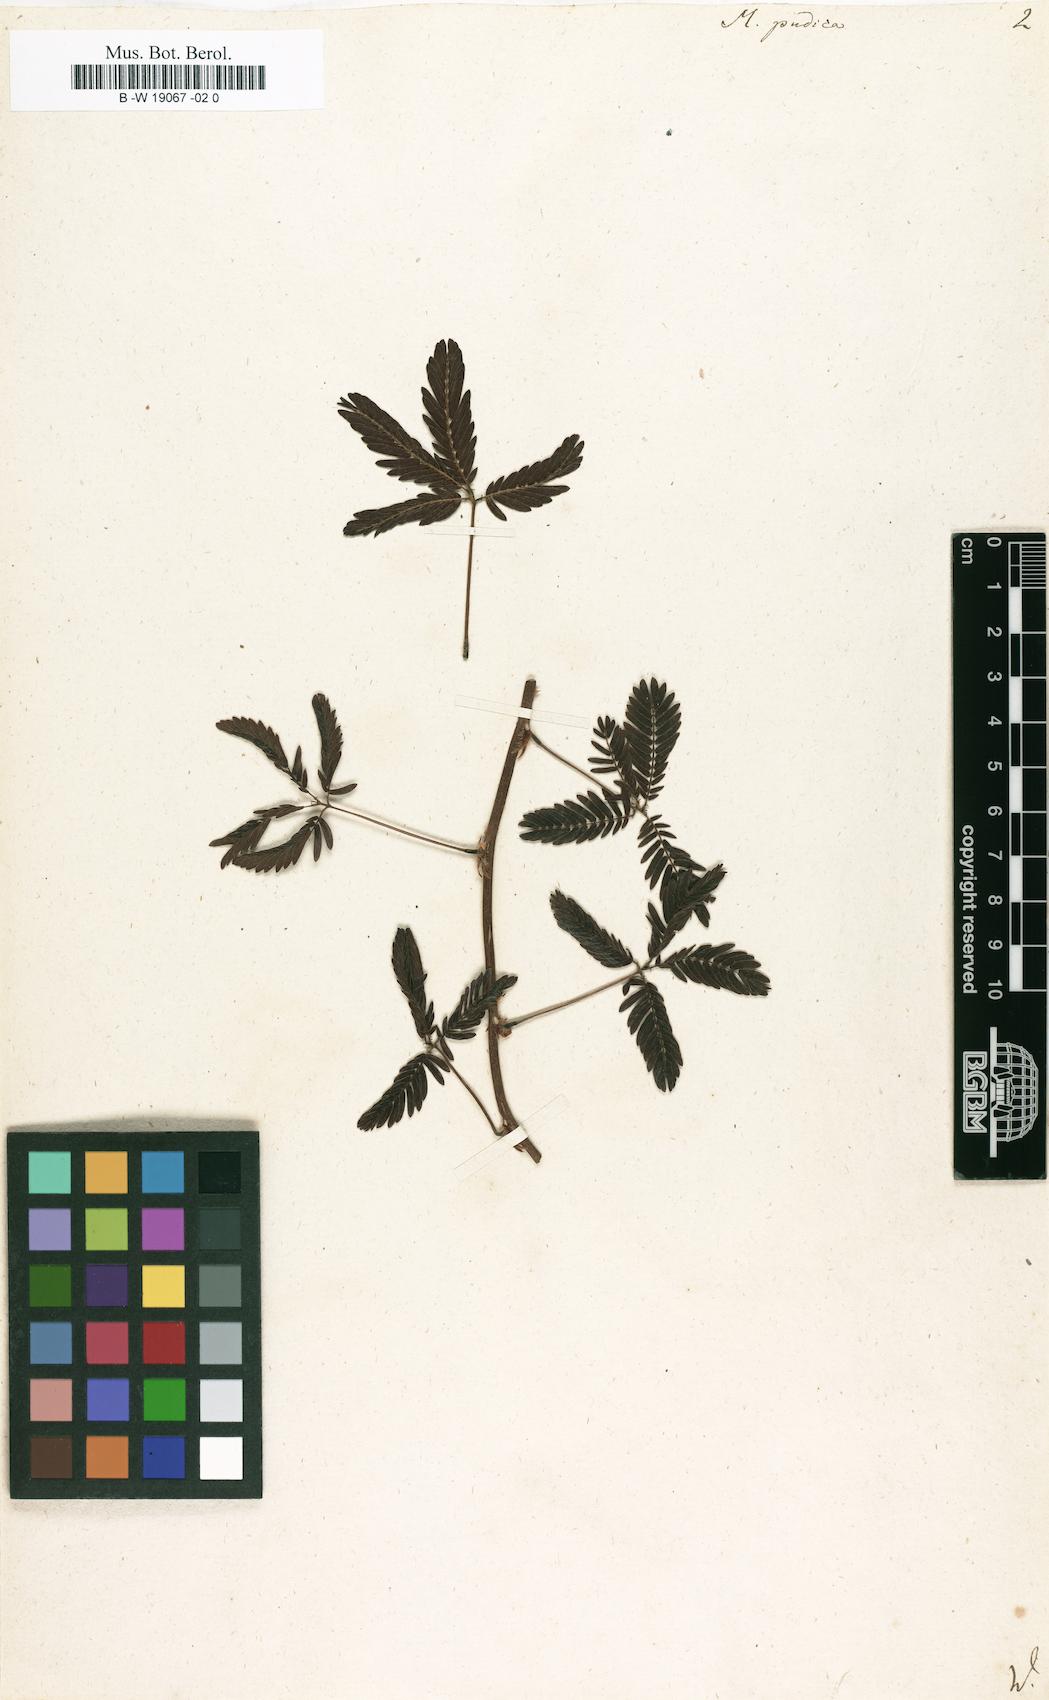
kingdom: Plantae
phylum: Tracheophyta
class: Magnoliopsida
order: Fabales
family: Fabaceae
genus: Mimosa
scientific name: Mimosa pudica
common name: Sensitive plant
